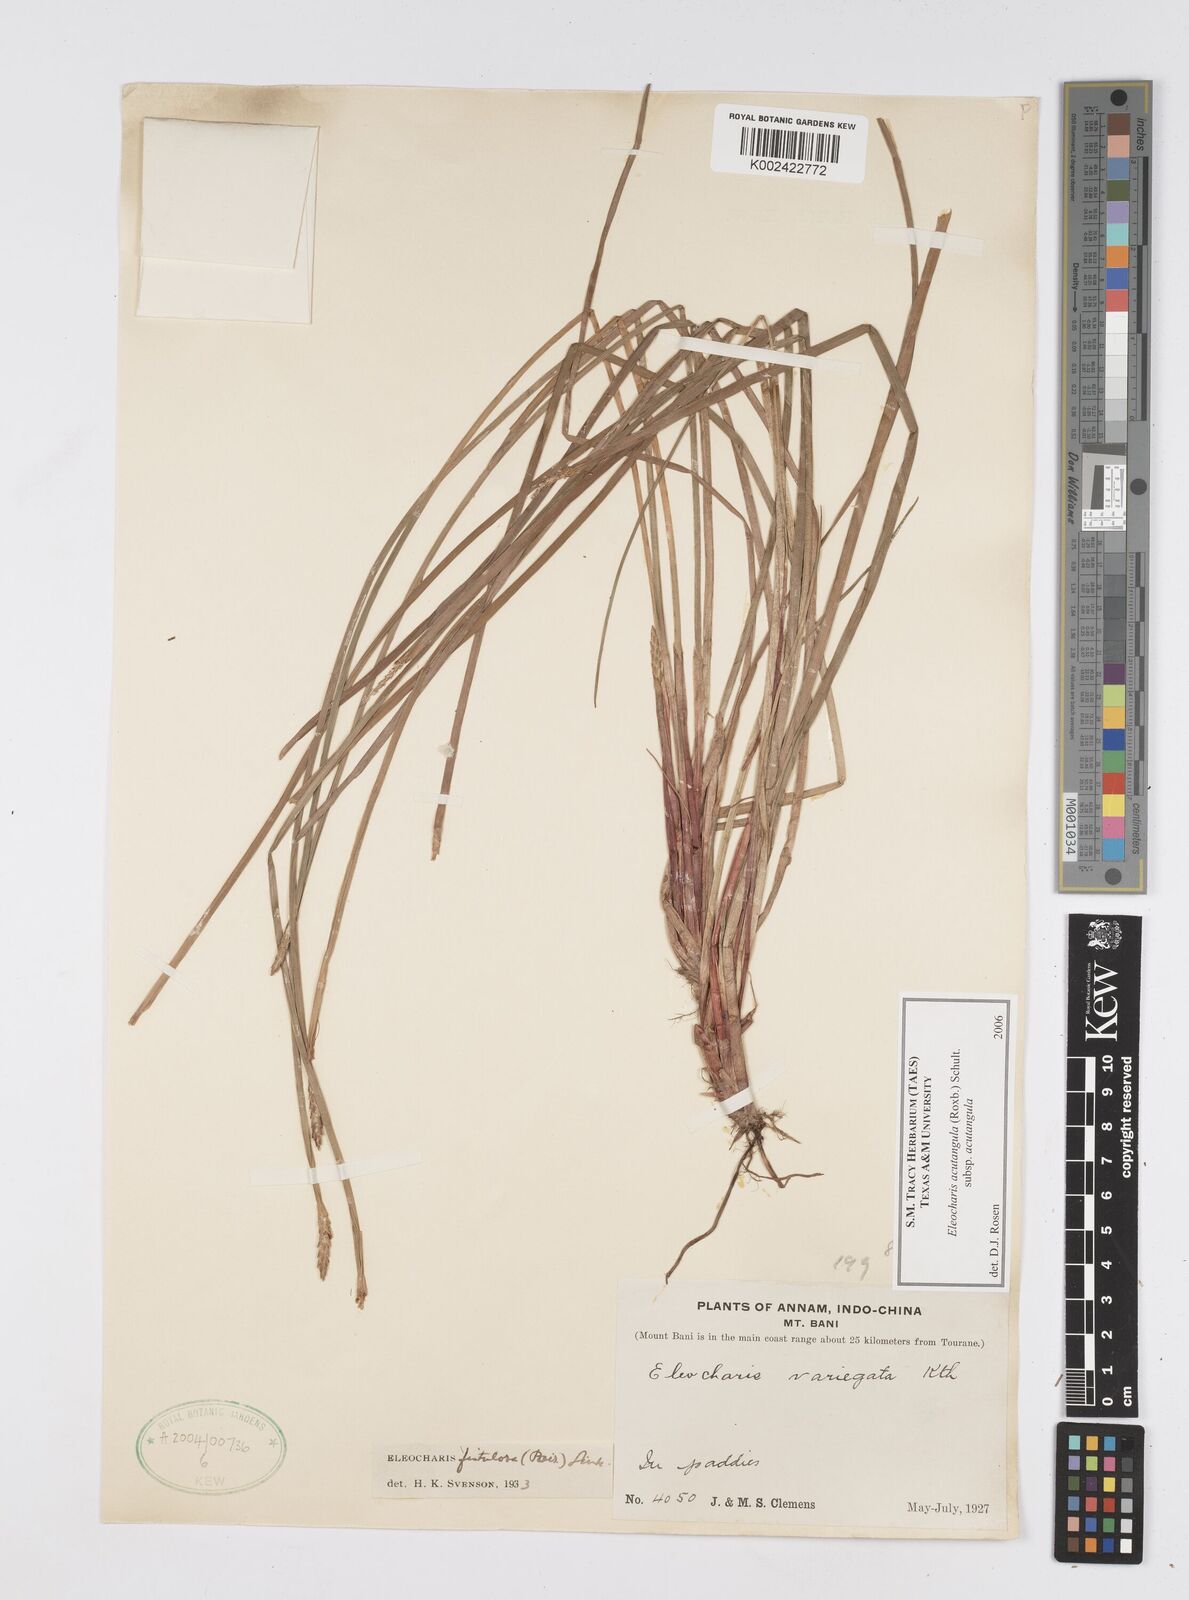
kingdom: Plantae
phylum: Tracheophyta
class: Liliopsida
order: Poales
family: Cyperaceae
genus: Eleocharis
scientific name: Eleocharis acutangula
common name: Acute spikerush
